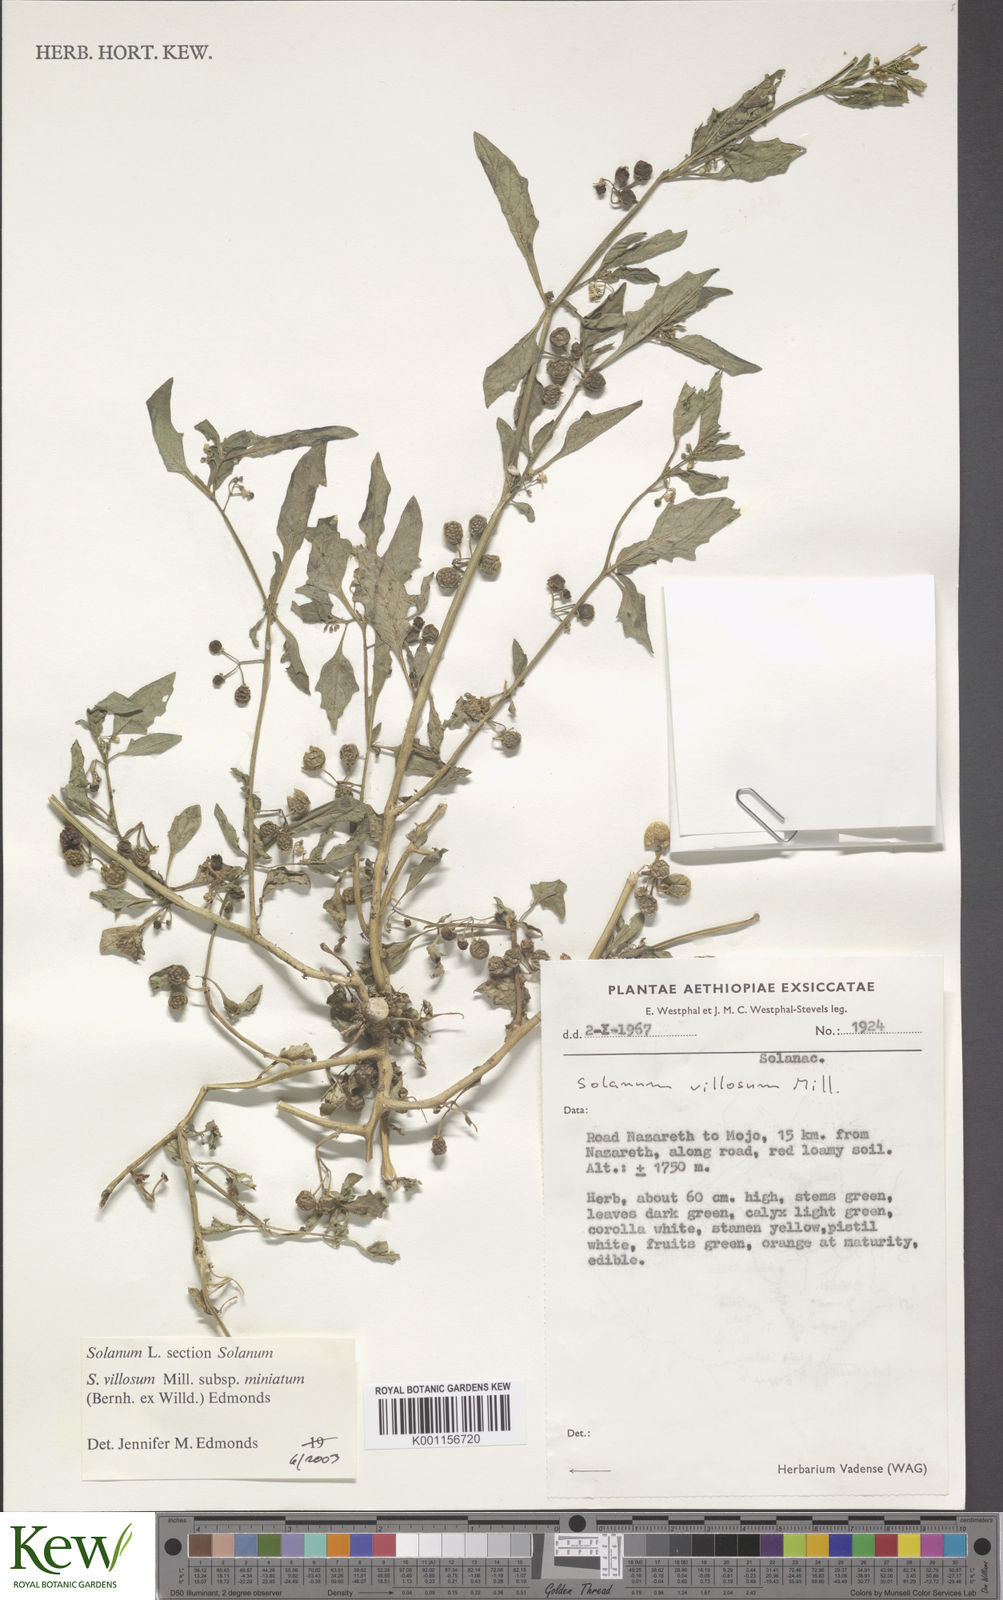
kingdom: Plantae
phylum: Tracheophyta
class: Magnoliopsida
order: Solanales
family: Solanaceae
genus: Solanum
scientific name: Solanum villosum
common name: Red nightshade
